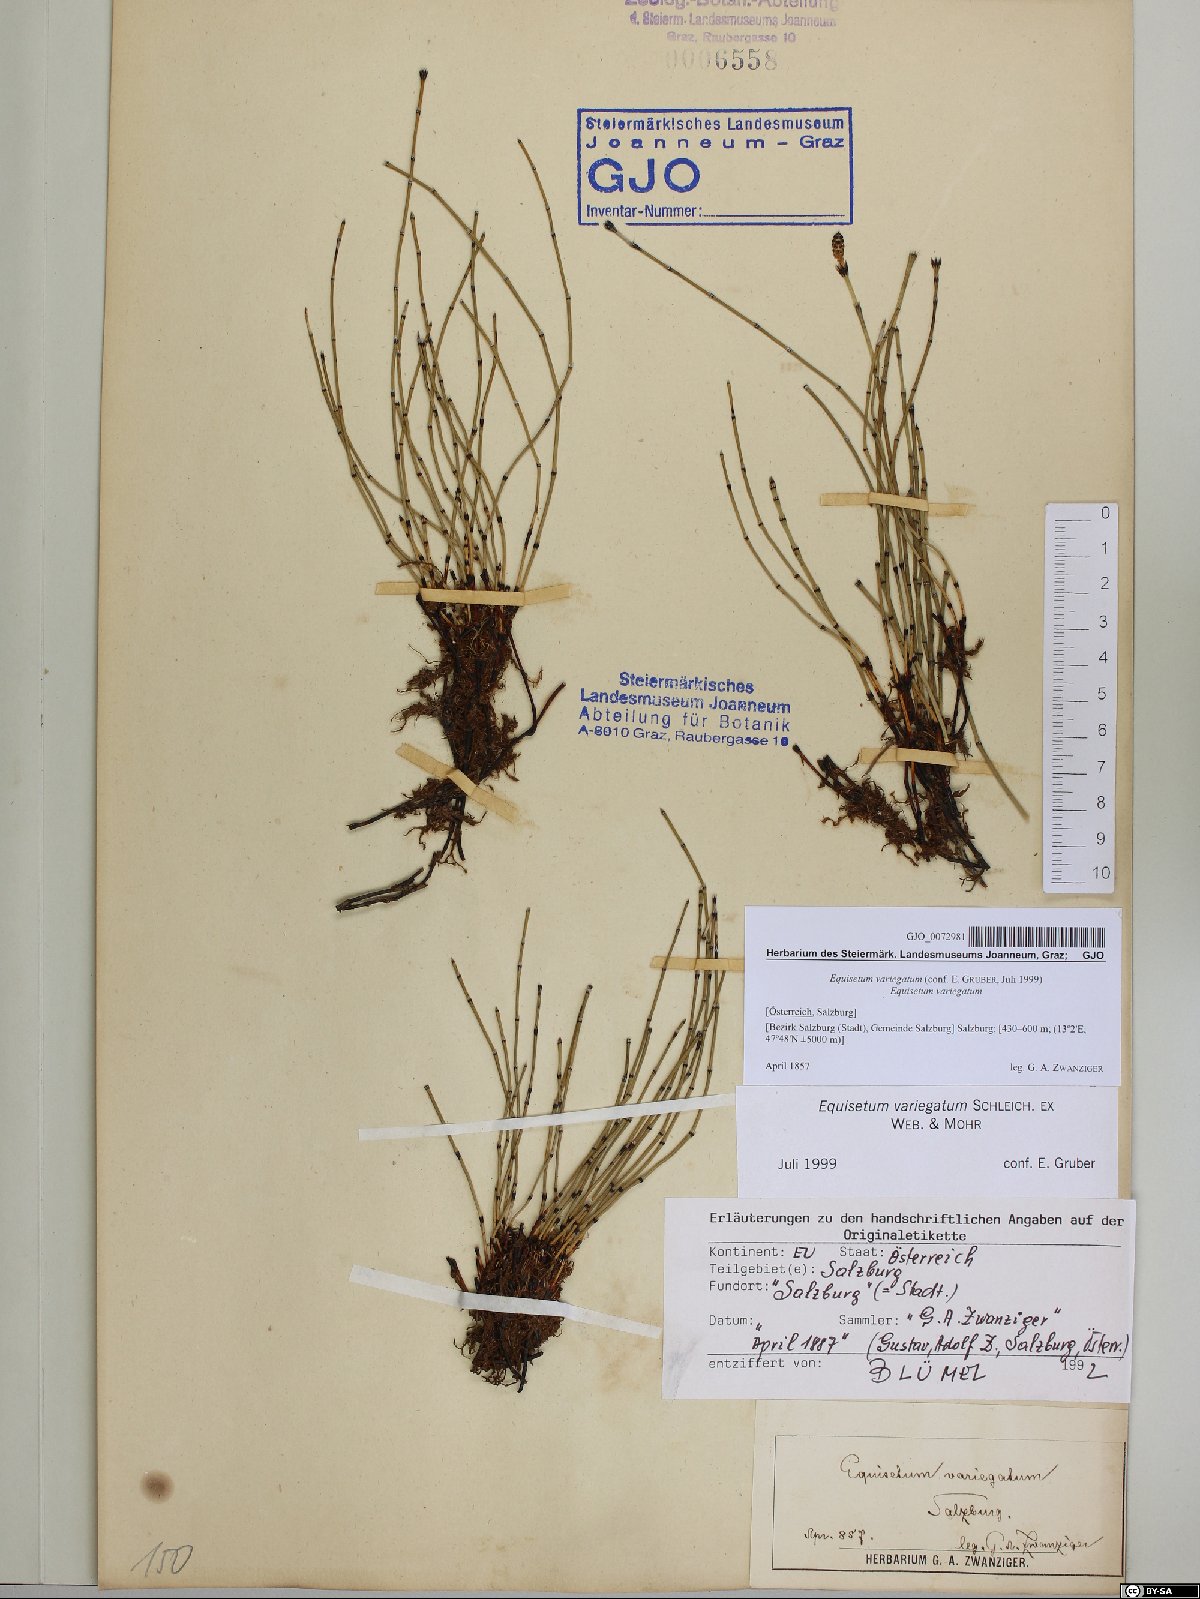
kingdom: Plantae
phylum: Tracheophyta
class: Polypodiopsida
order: Equisetales
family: Equisetaceae
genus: Equisetum
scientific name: Equisetum variegatum
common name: Variegated horsetail
